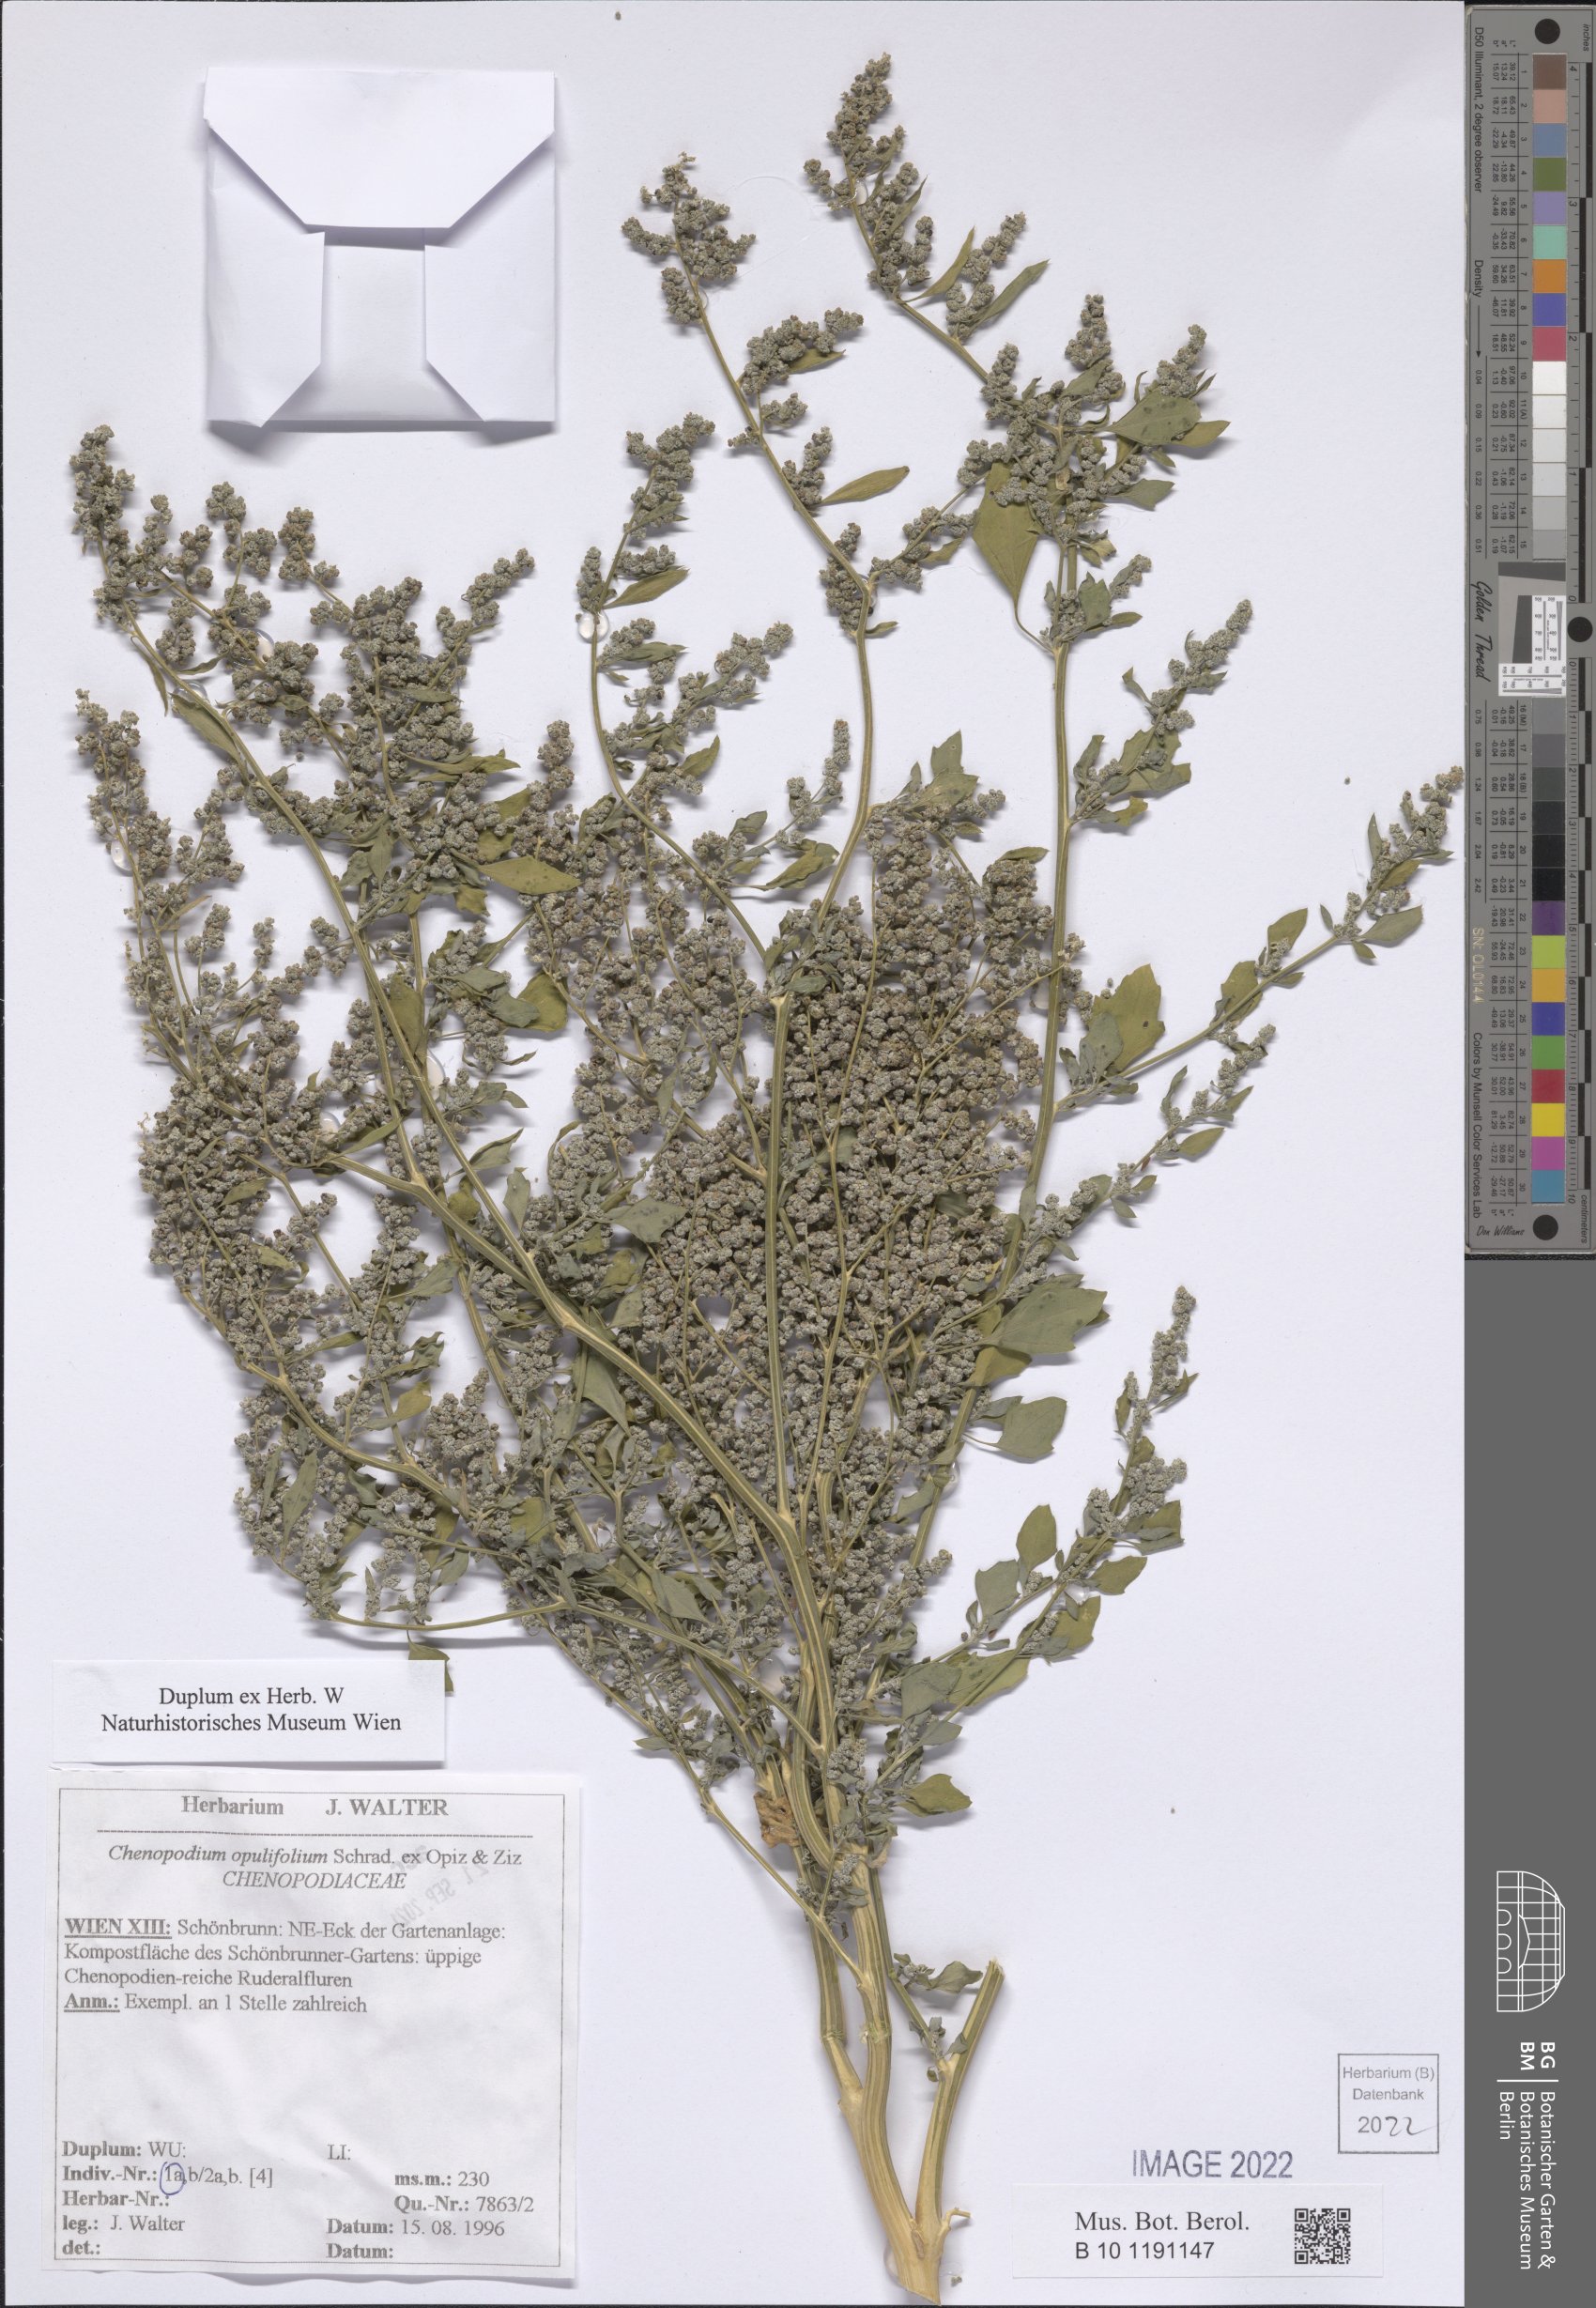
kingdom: Plantae
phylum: Tracheophyta
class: Magnoliopsida
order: Caryophyllales
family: Amaranthaceae
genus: Chenopodium
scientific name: Chenopodium opulifolium
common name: Grey goosefoot
